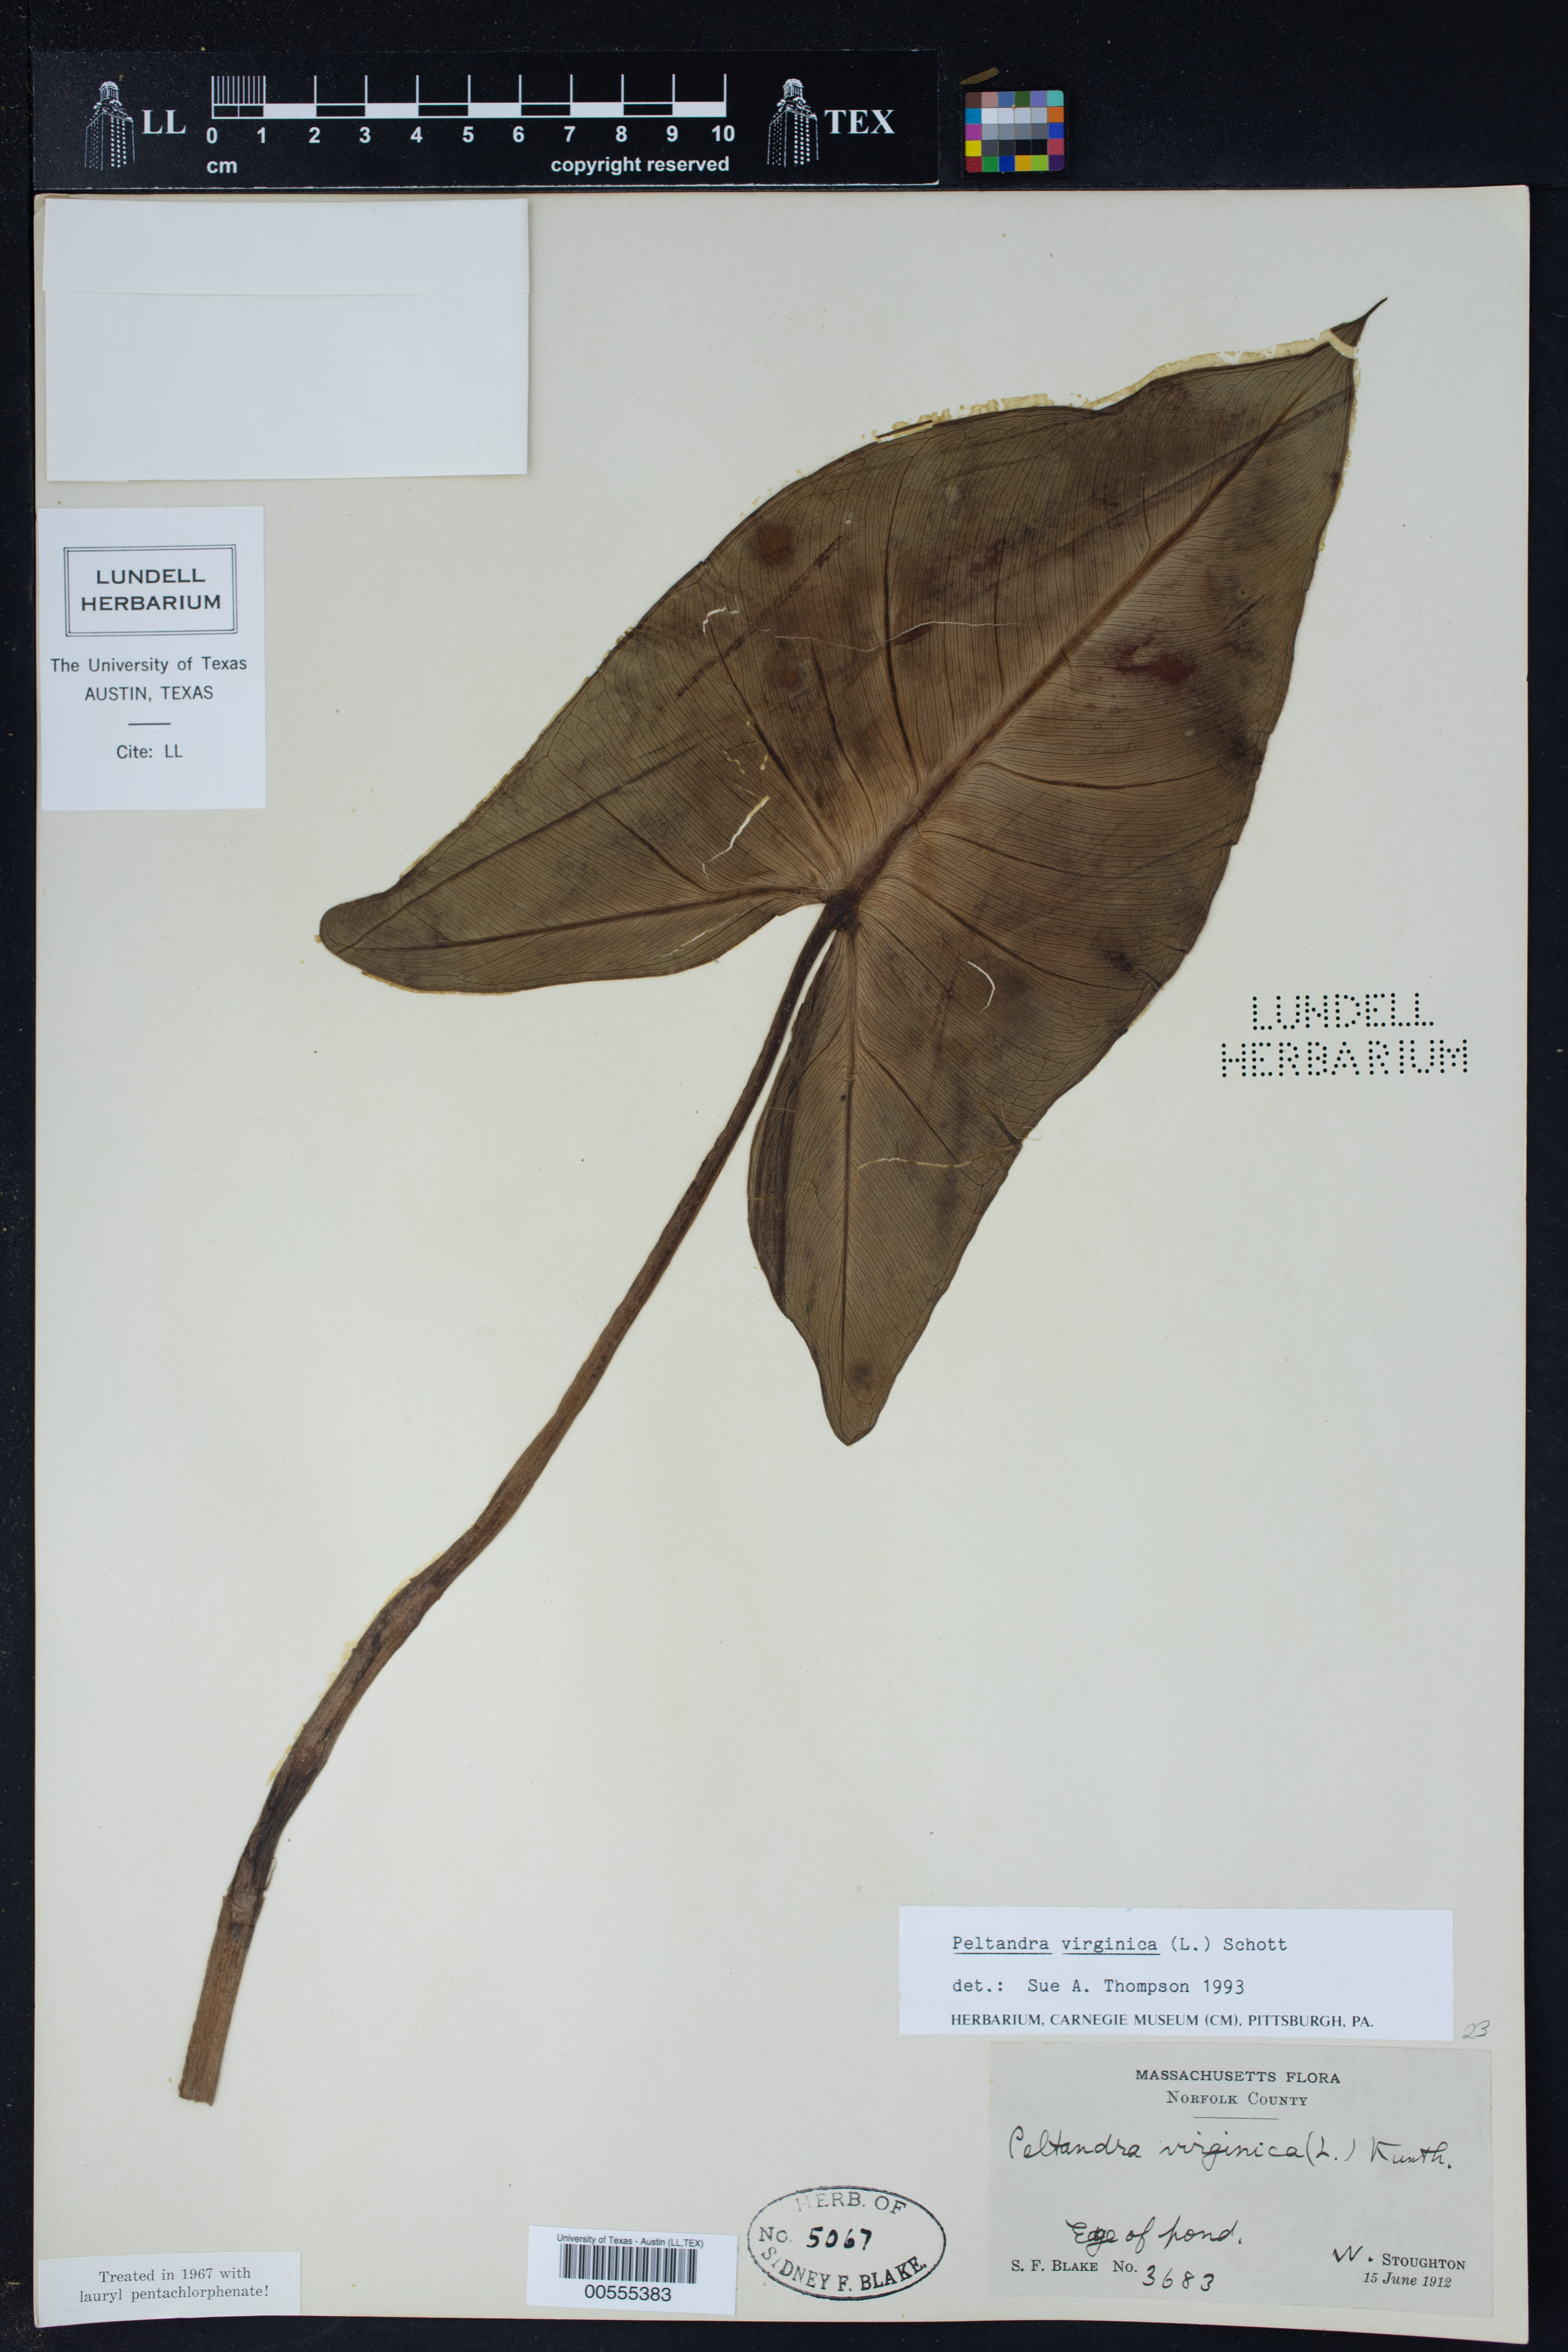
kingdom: Plantae
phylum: Tracheophyta
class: Liliopsida
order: Alismatales
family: Araceae
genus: Peltandra
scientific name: Peltandra virginica
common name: Arrow arum
